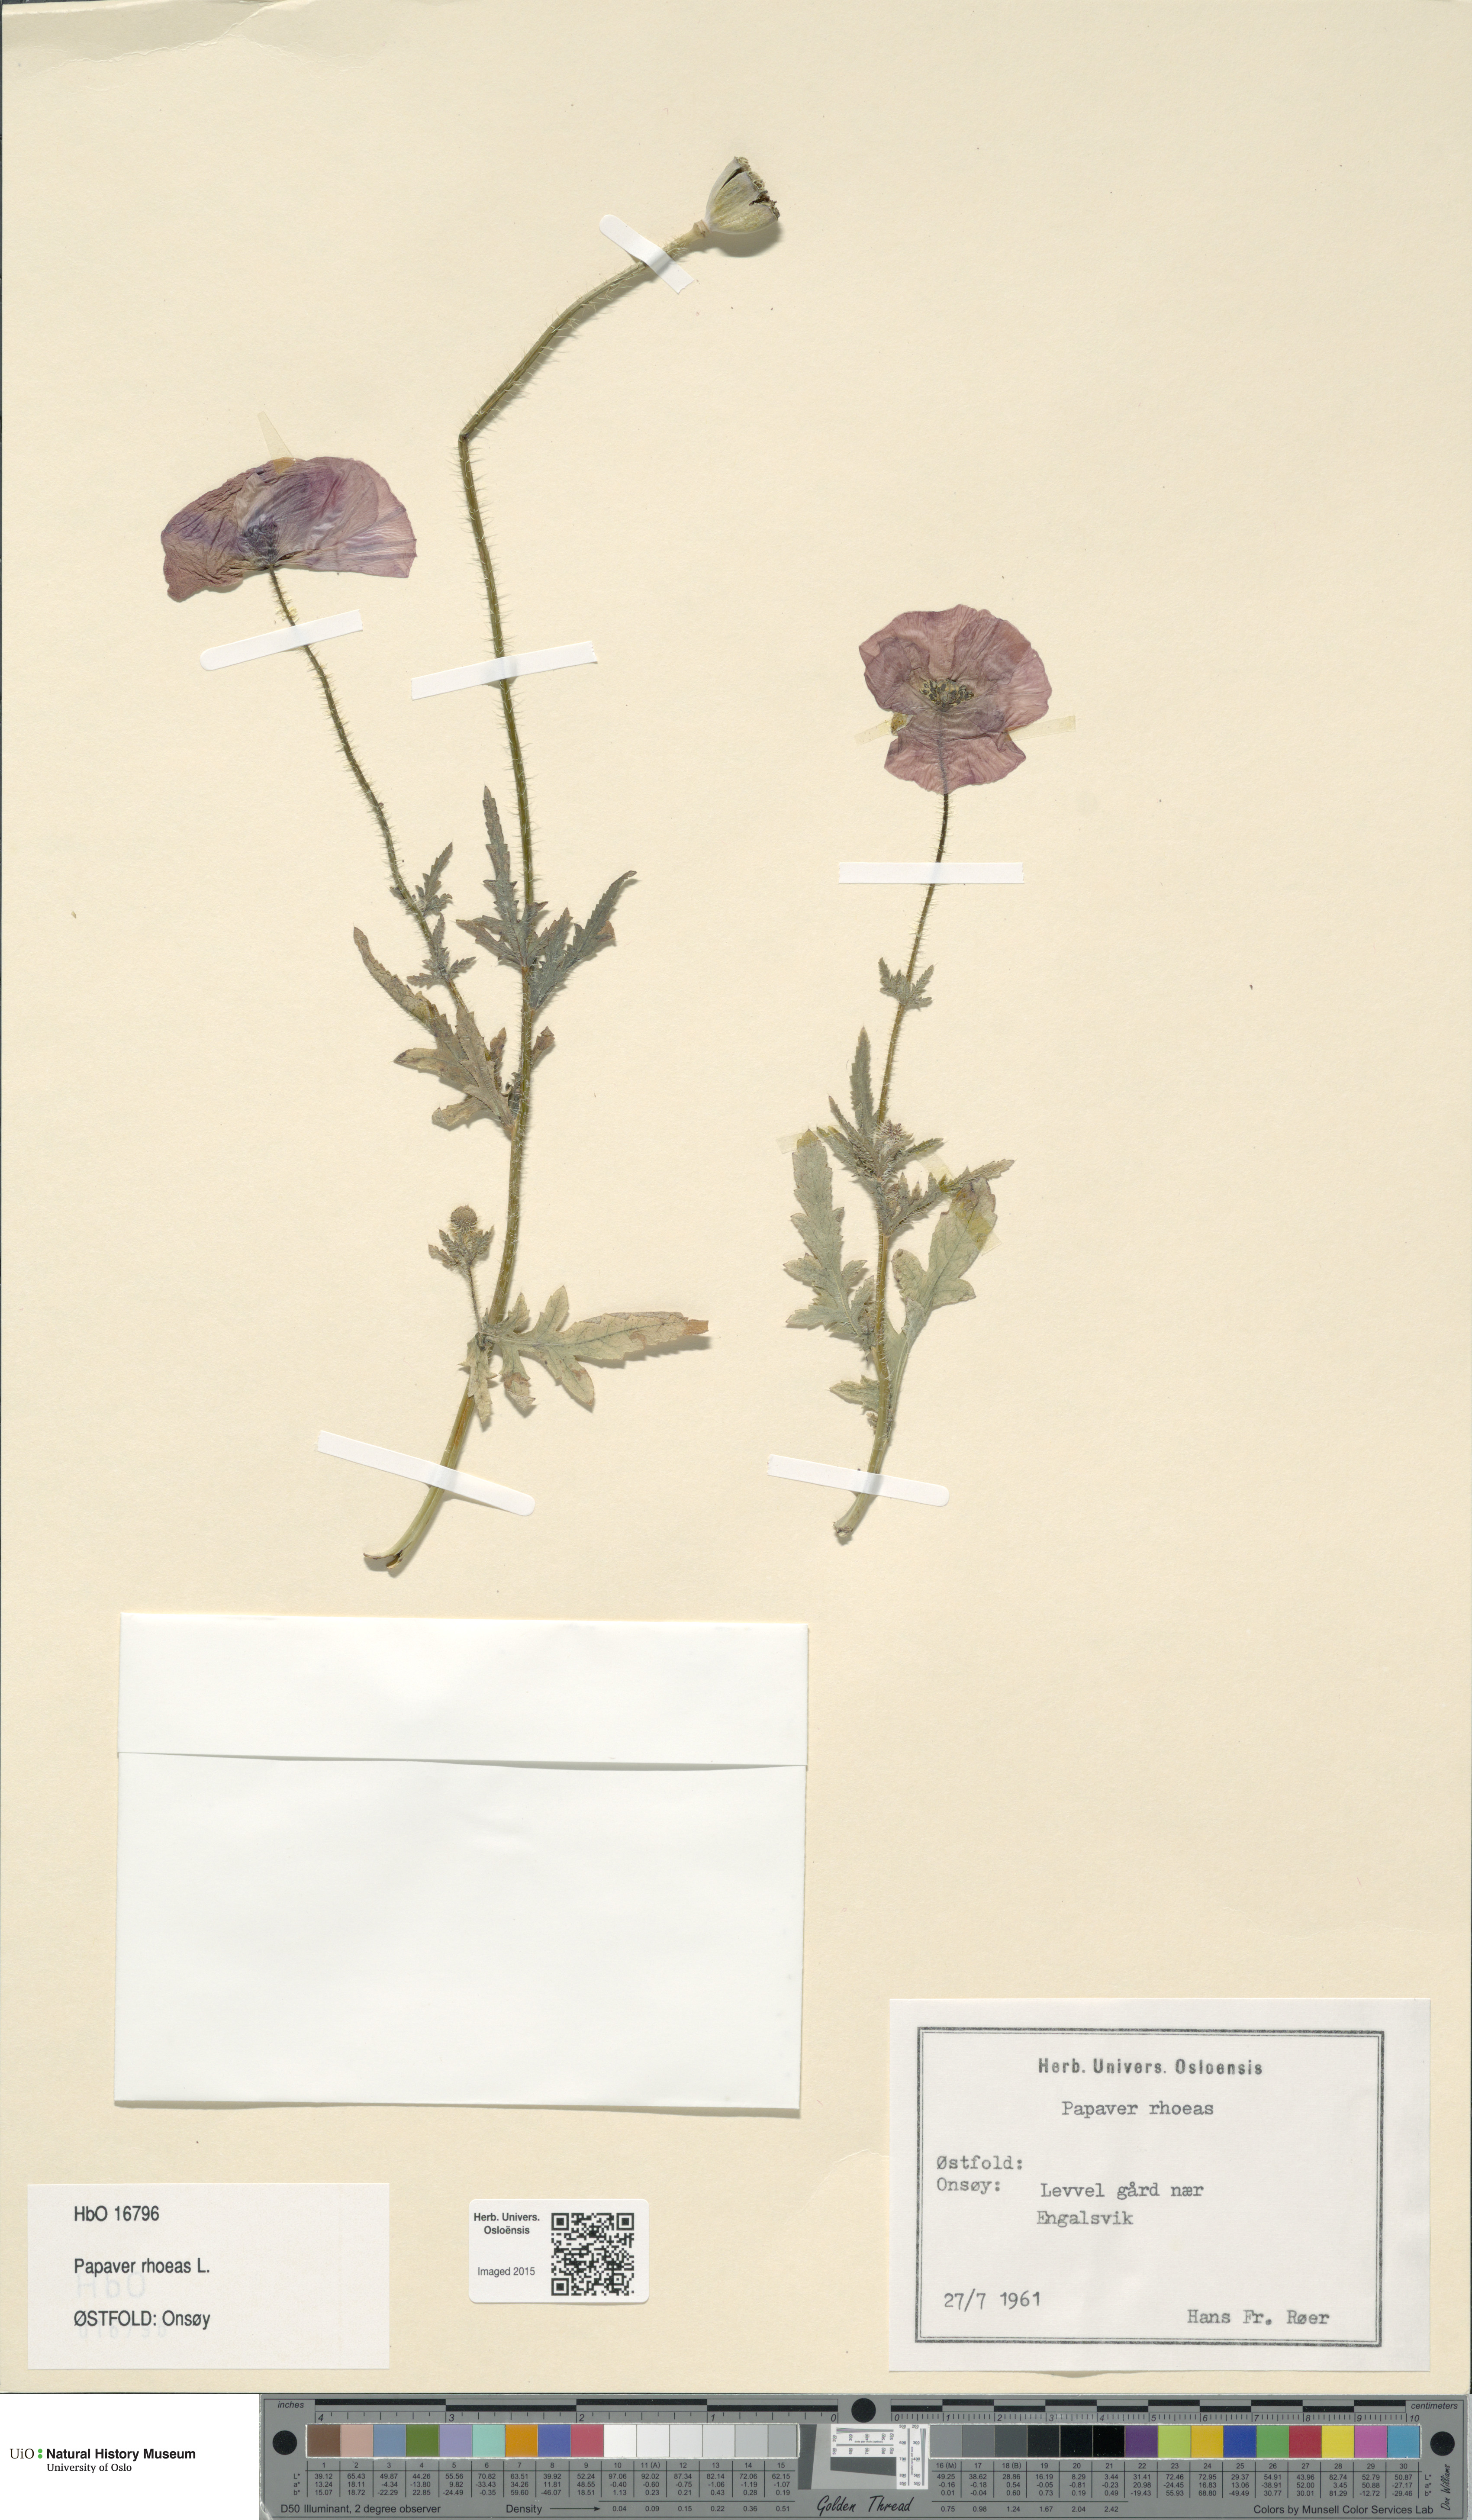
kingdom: Plantae
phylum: Tracheophyta
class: Magnoliopsida
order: Ranunculales
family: Papaveraceae
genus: Papaver
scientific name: Papaver rhoeas
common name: Corn poppy
